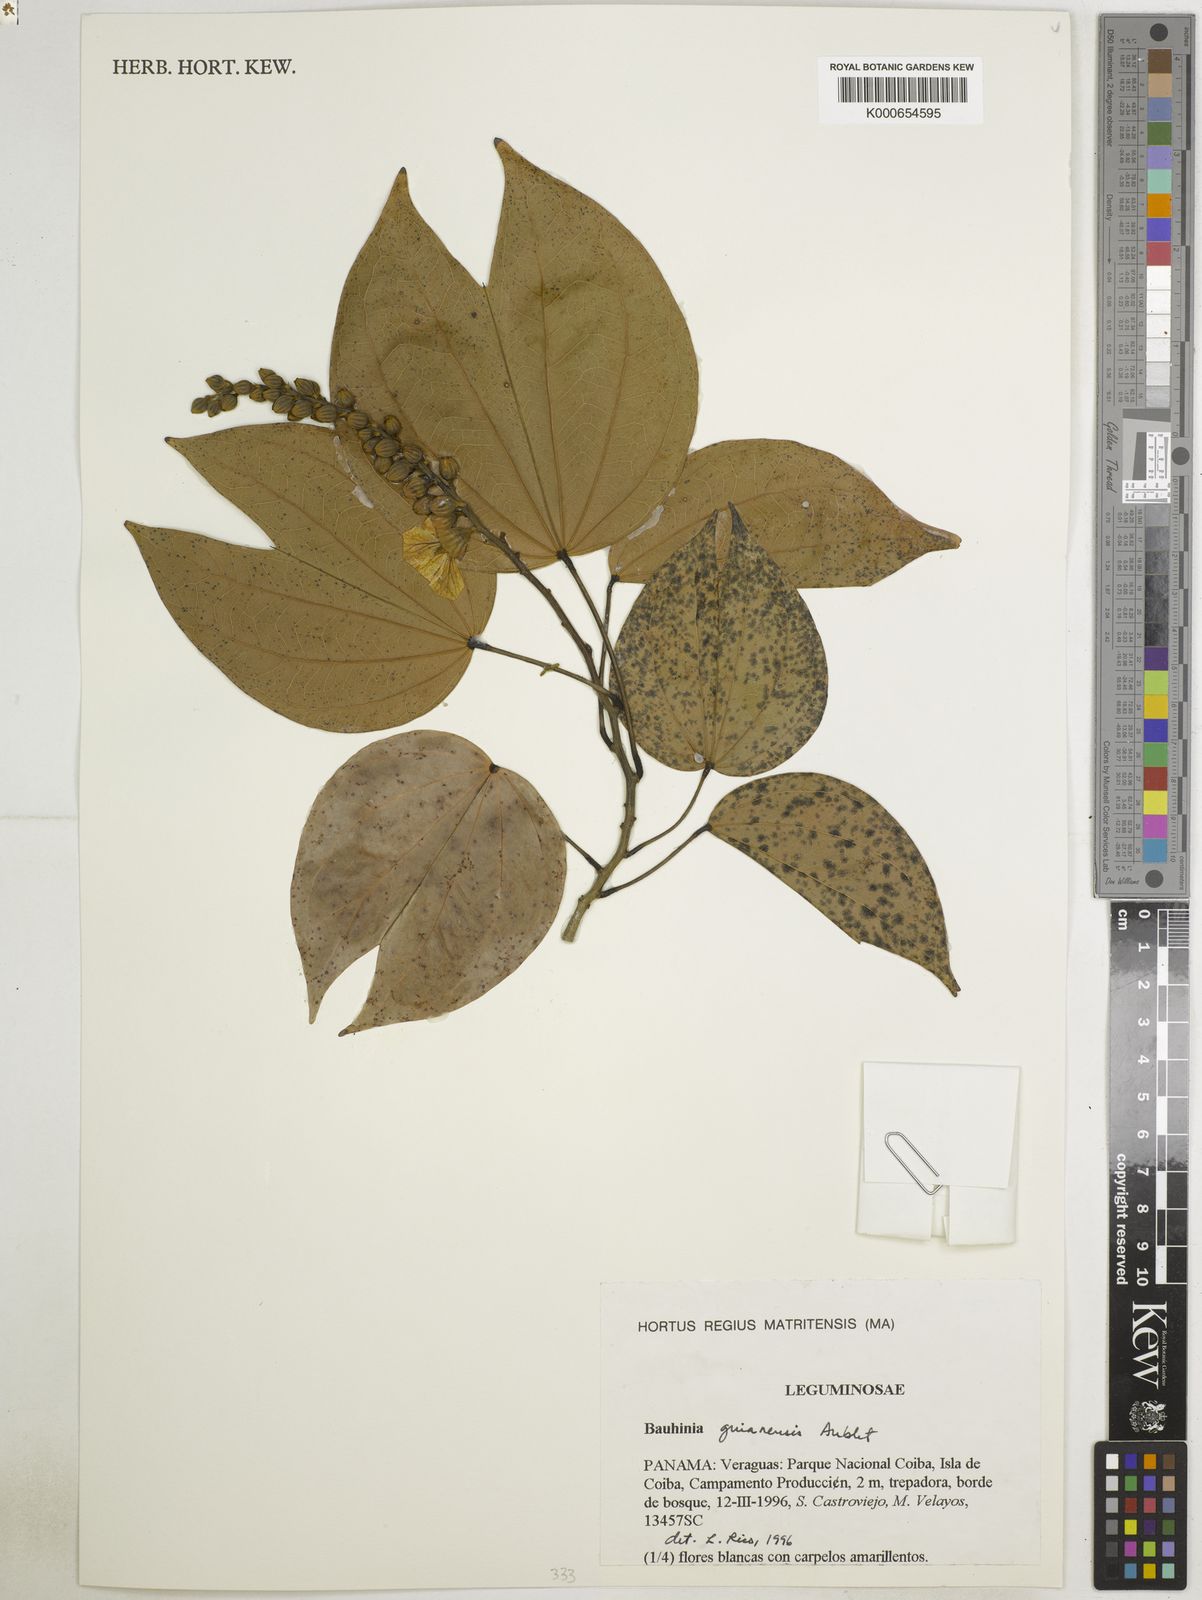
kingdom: Plantae
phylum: Tracheophyta
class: Magnoliopsida
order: Fabales
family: Fabaceae
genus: Schnella
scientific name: Schnella guianensis
